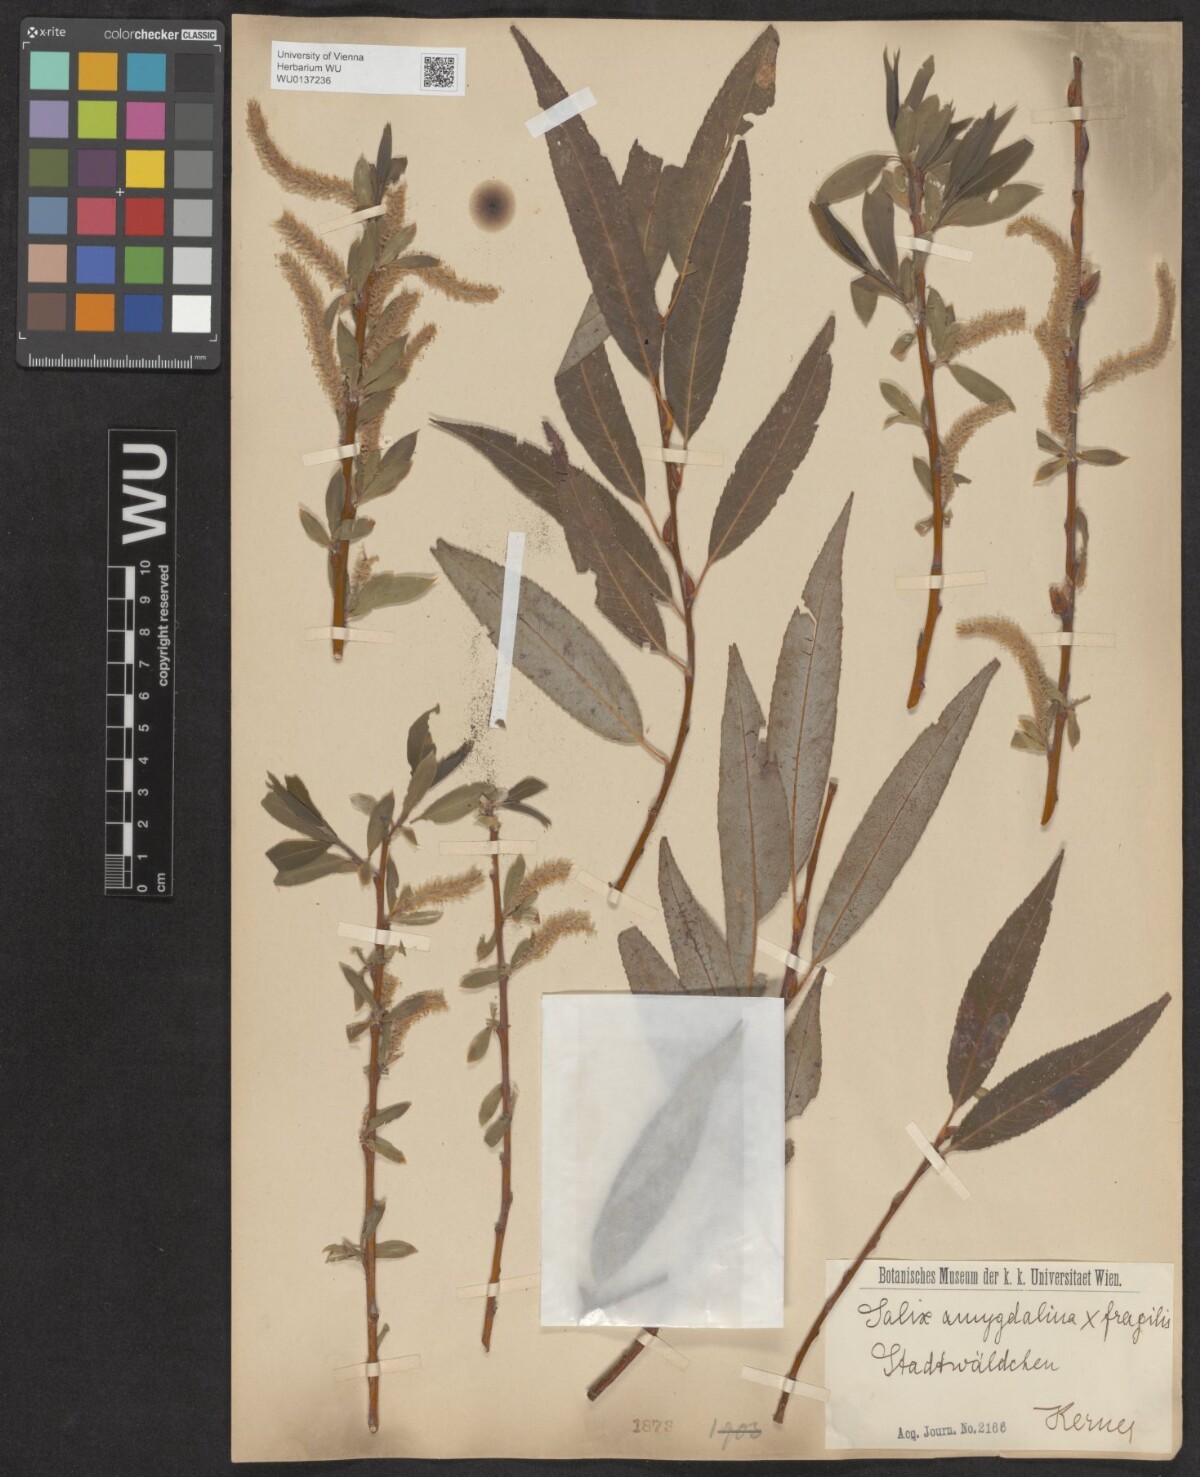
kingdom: Plantae
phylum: Tracheophyta
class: Magnoliopsida
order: Malpighiales
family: Salicaceae
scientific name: Salicaceae
